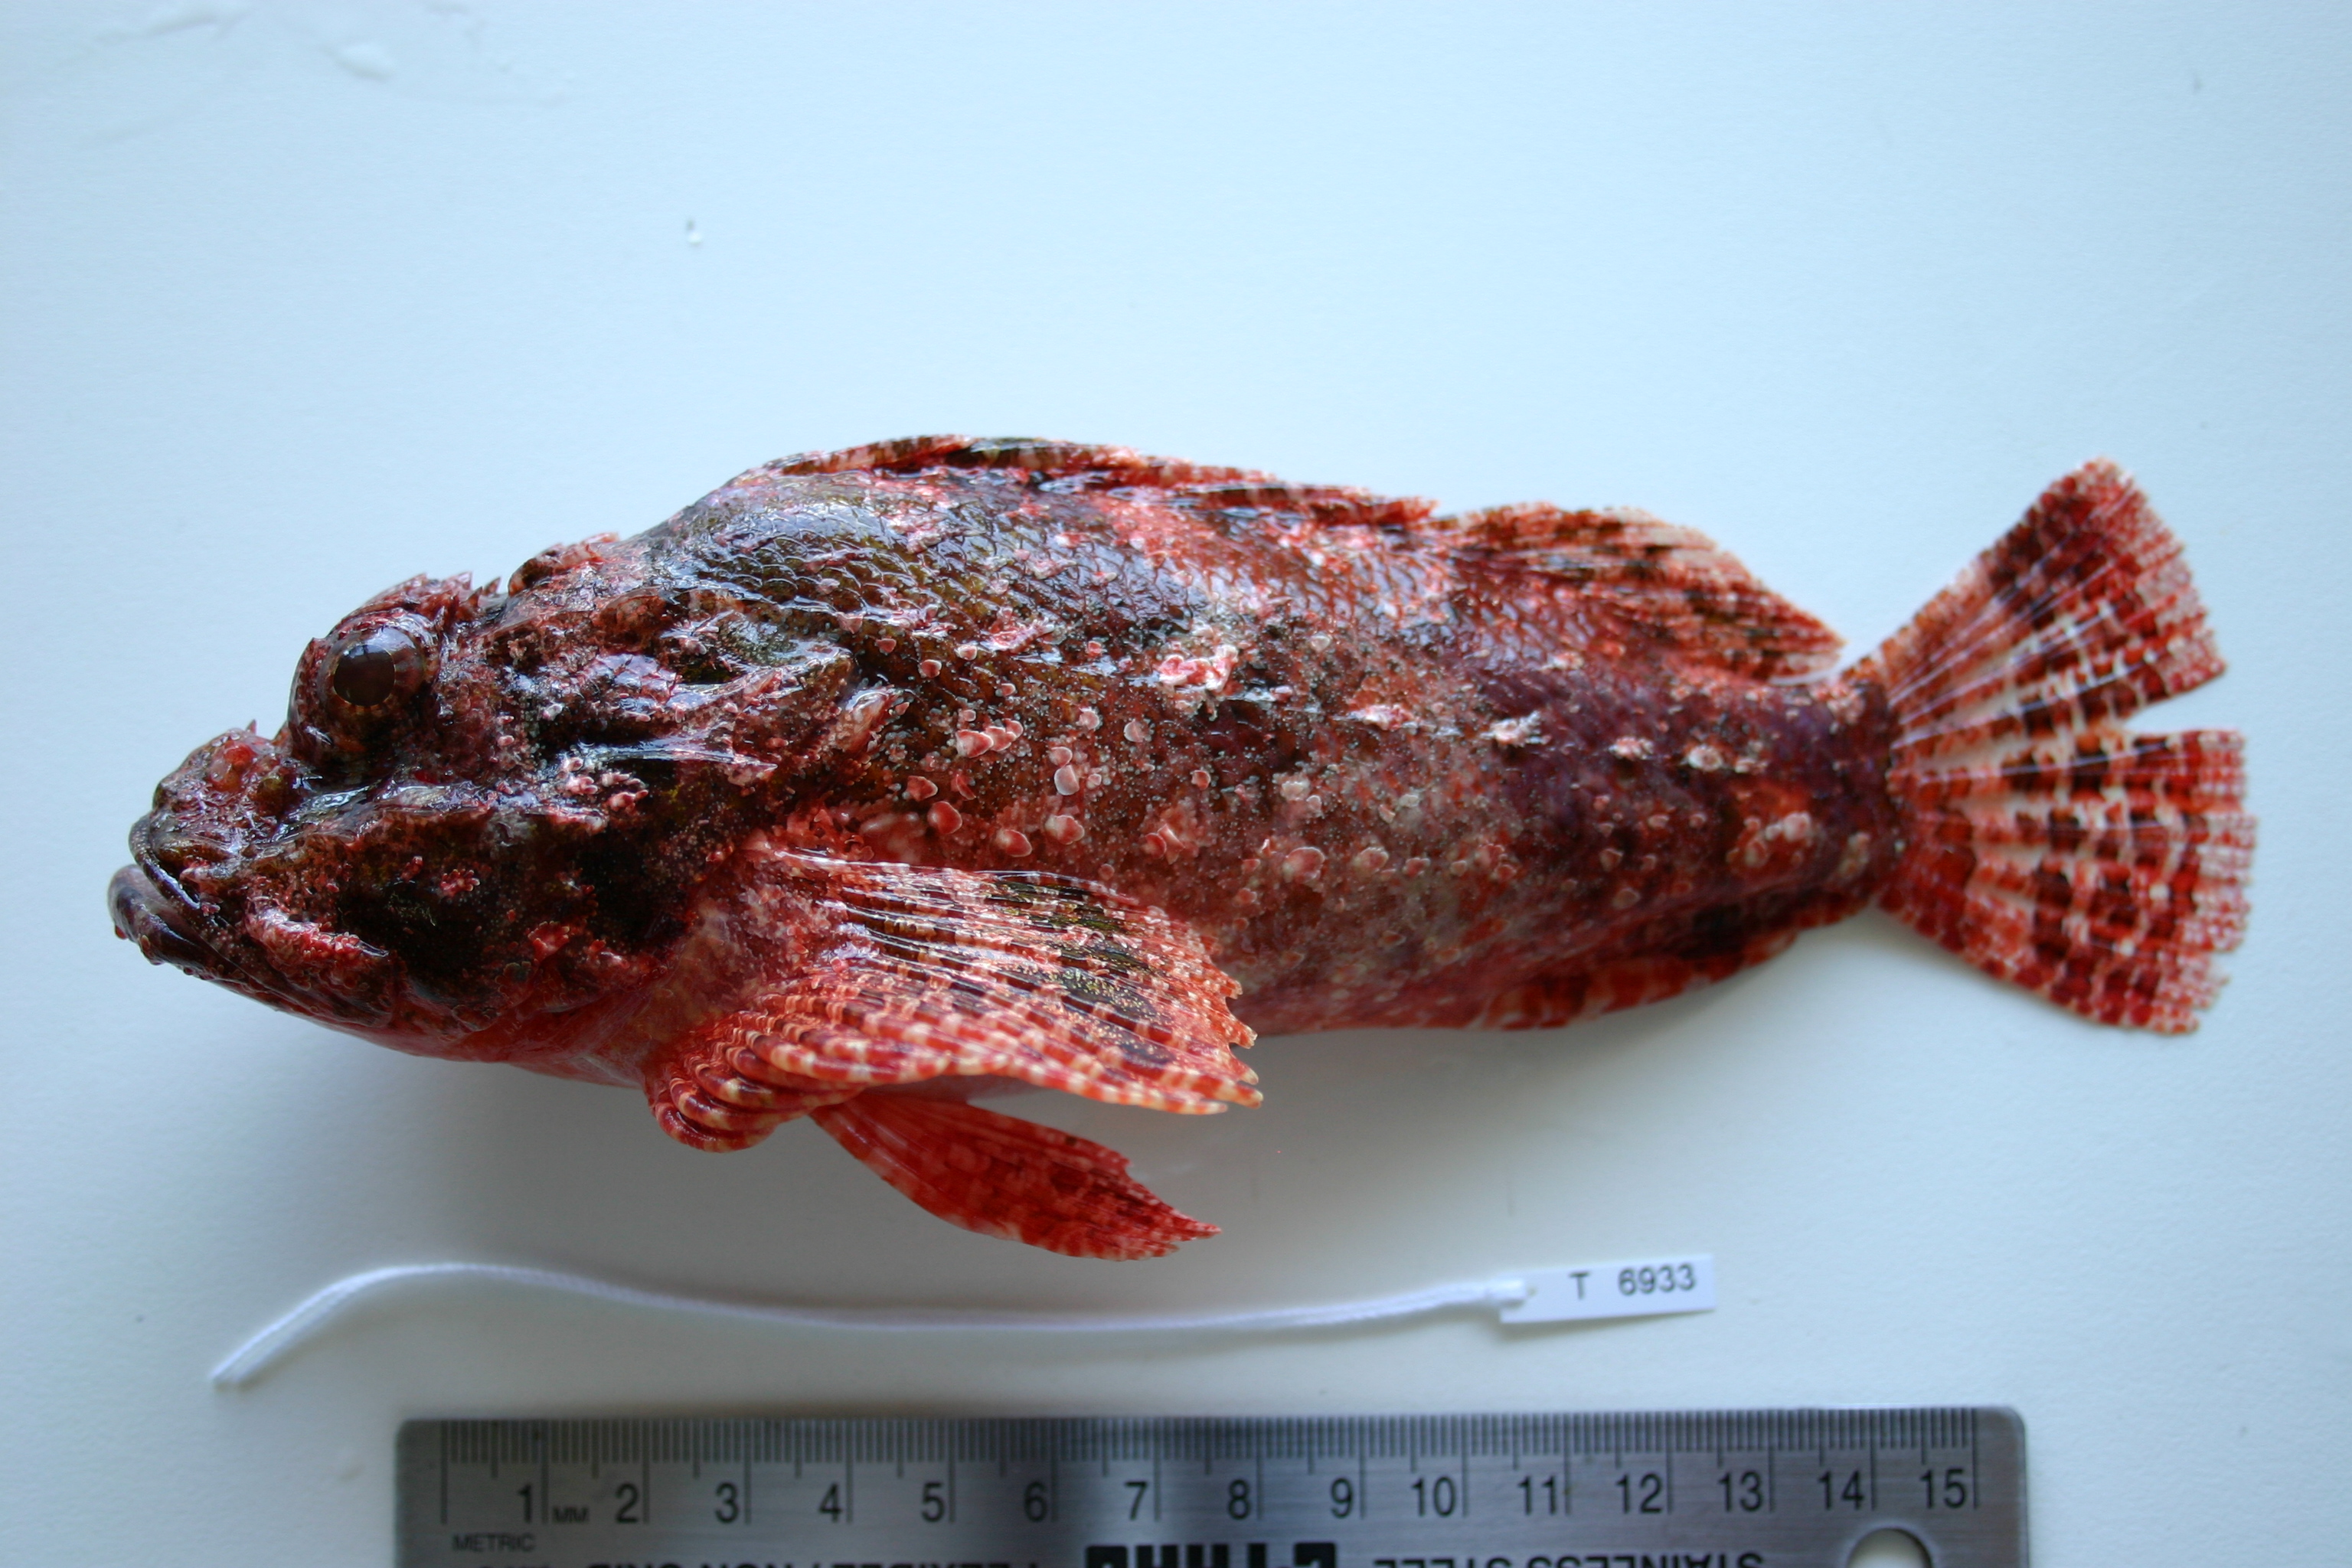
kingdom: Animalia
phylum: Chordata
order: Scorpaeniformes
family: Scorpaenidae
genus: Scorpaenopsis
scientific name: Scorpaenopsis possi
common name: Poss's scorpionfish
